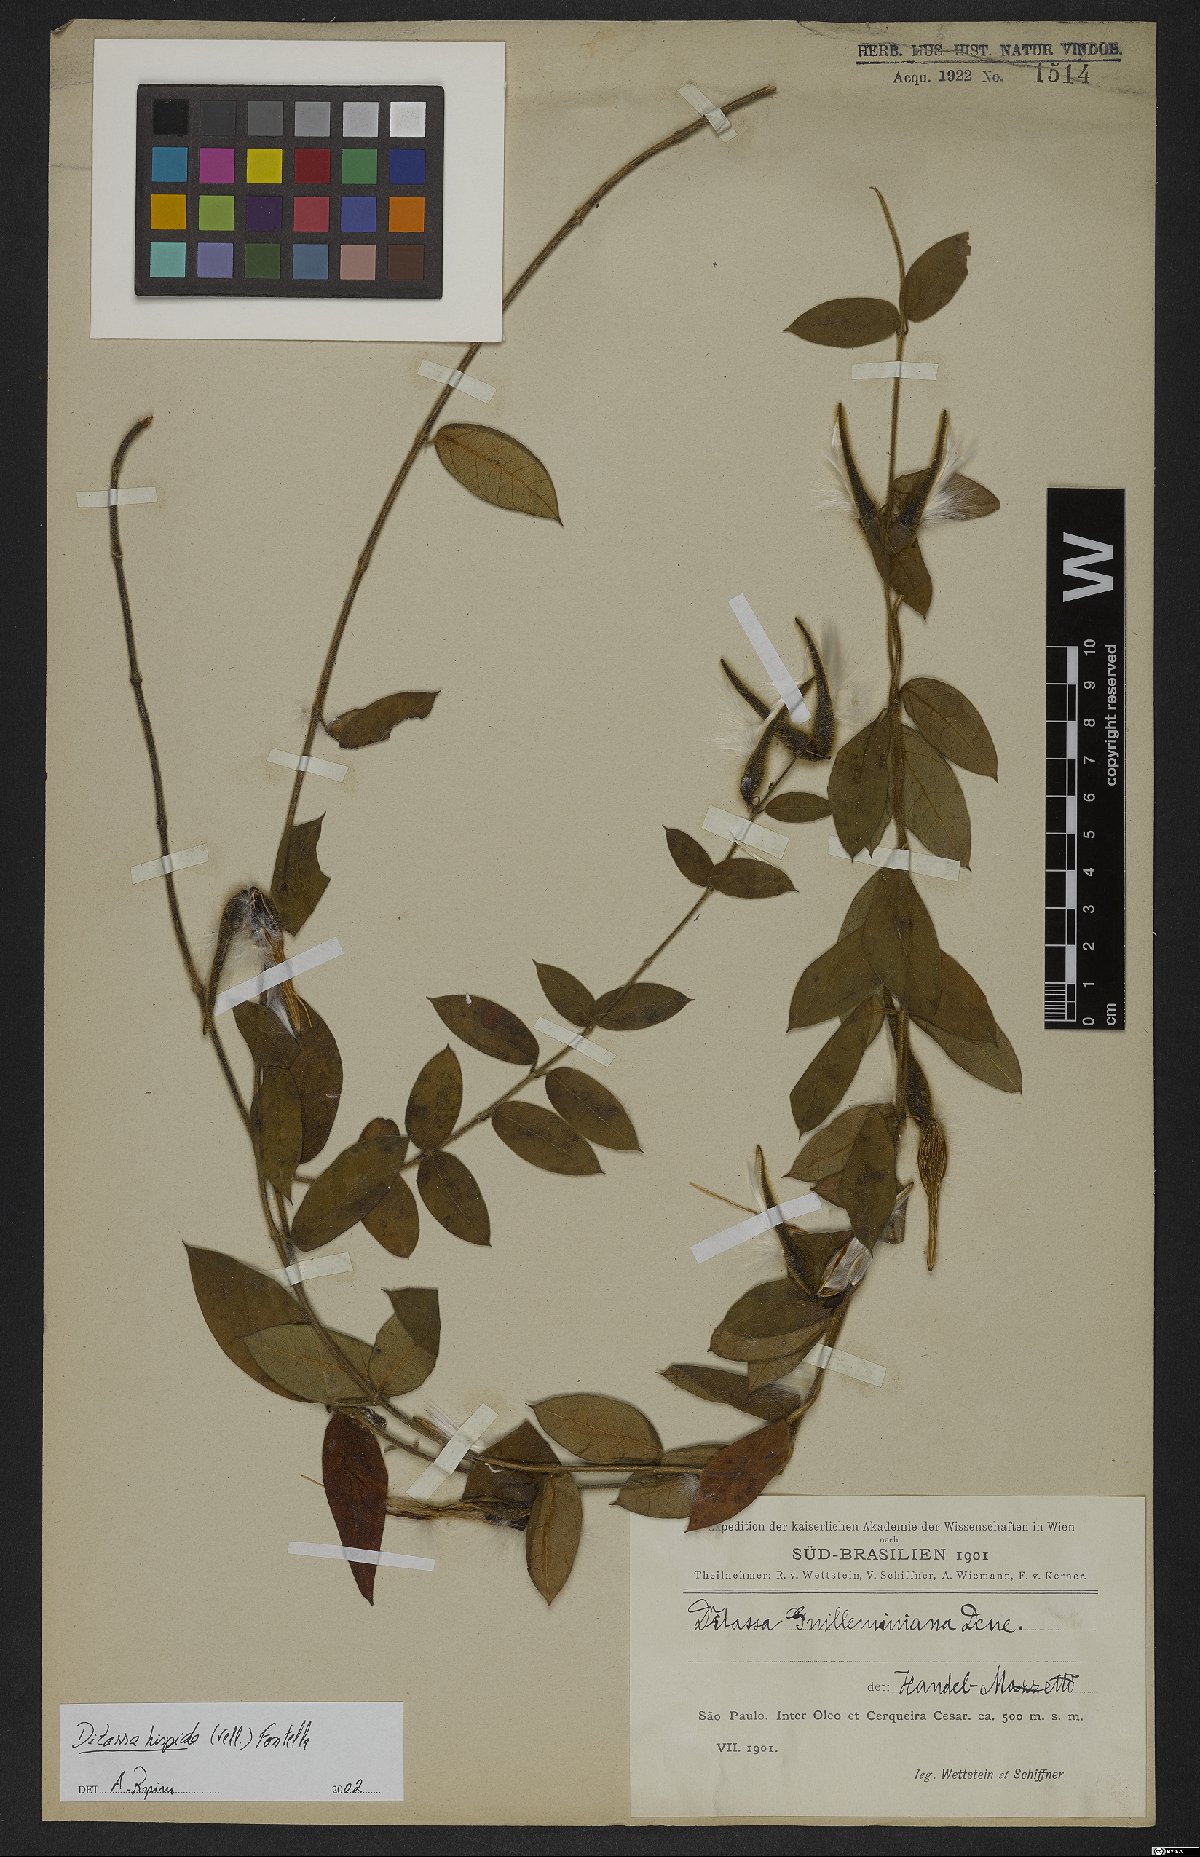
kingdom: Plantae
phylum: Tracheophyta
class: Magnoliopsida
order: Gentianales
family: Apocynaceae
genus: Ditassa
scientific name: Ditassa hispida
